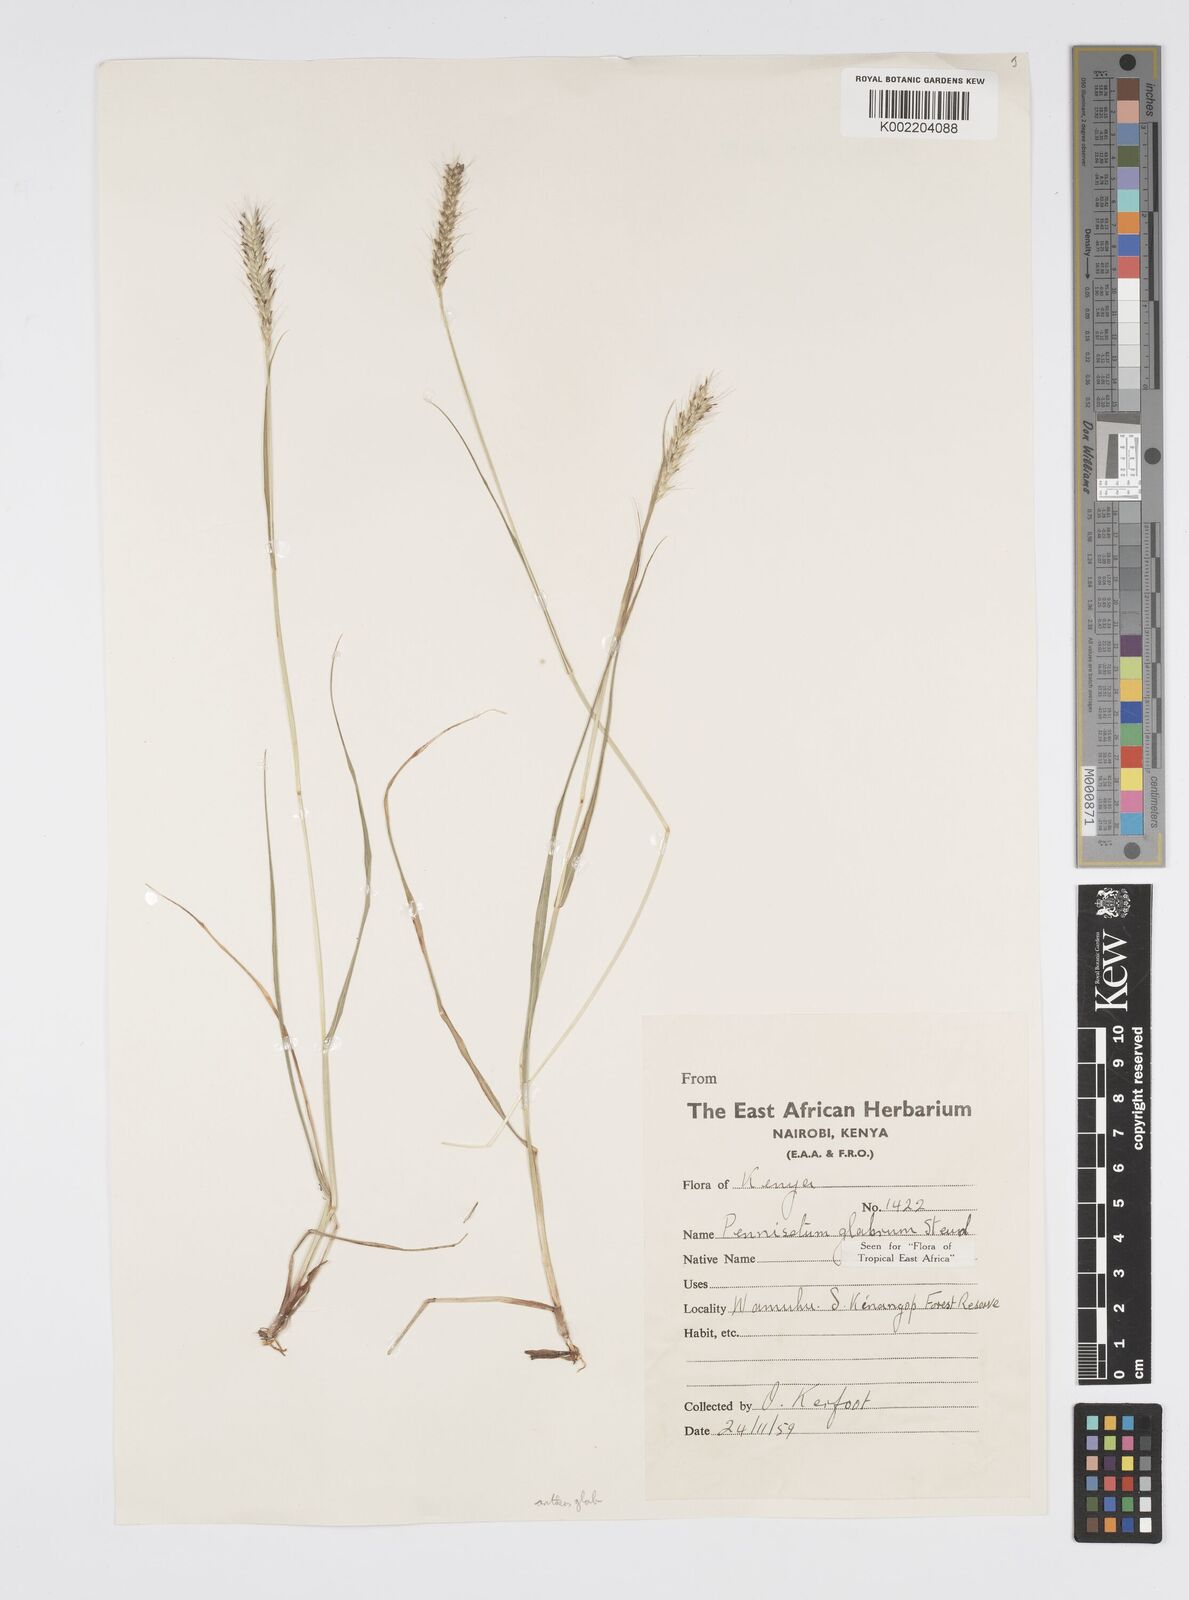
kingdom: Plantae
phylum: Tracheophyta
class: Liliopsida
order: Poales
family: Poaceae
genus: Cenchrus
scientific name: Cenchrus geniculatus
